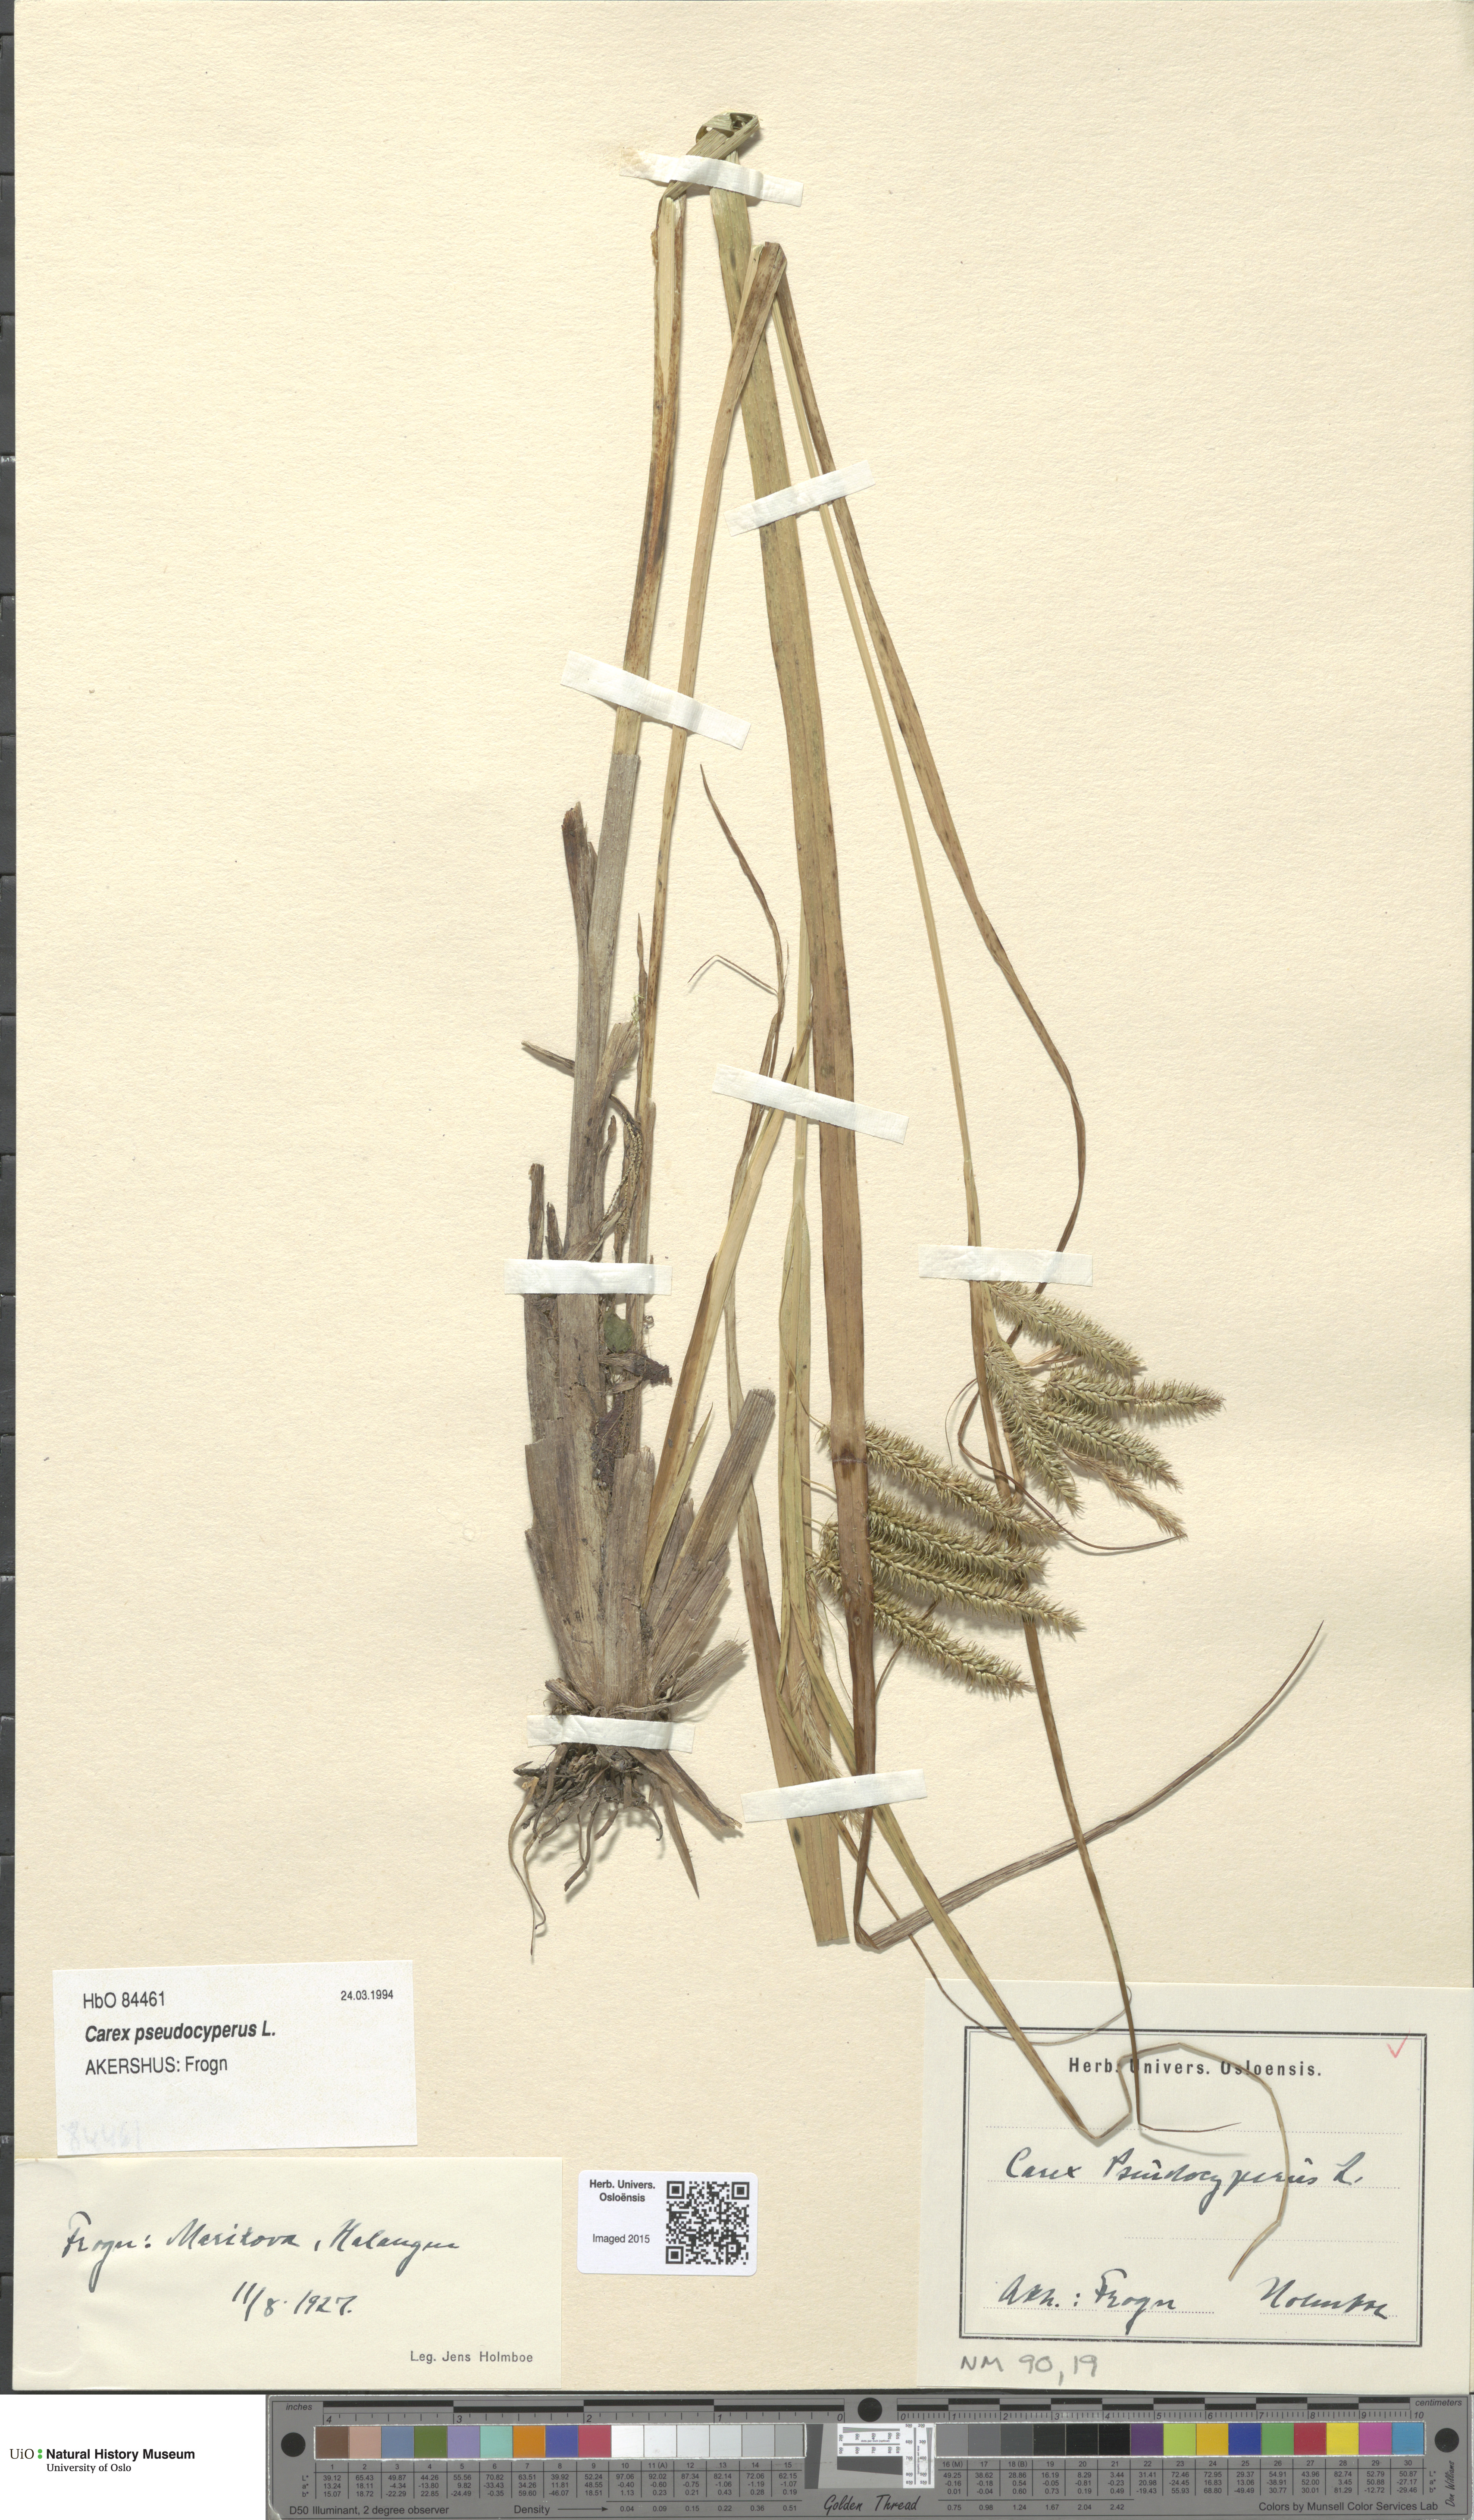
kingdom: Plantae
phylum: Tracheophyta
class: Liliopsida
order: Poales
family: Cyperaceae
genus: Carex
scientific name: Carex pseudocyperus
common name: Cyperus sedge
